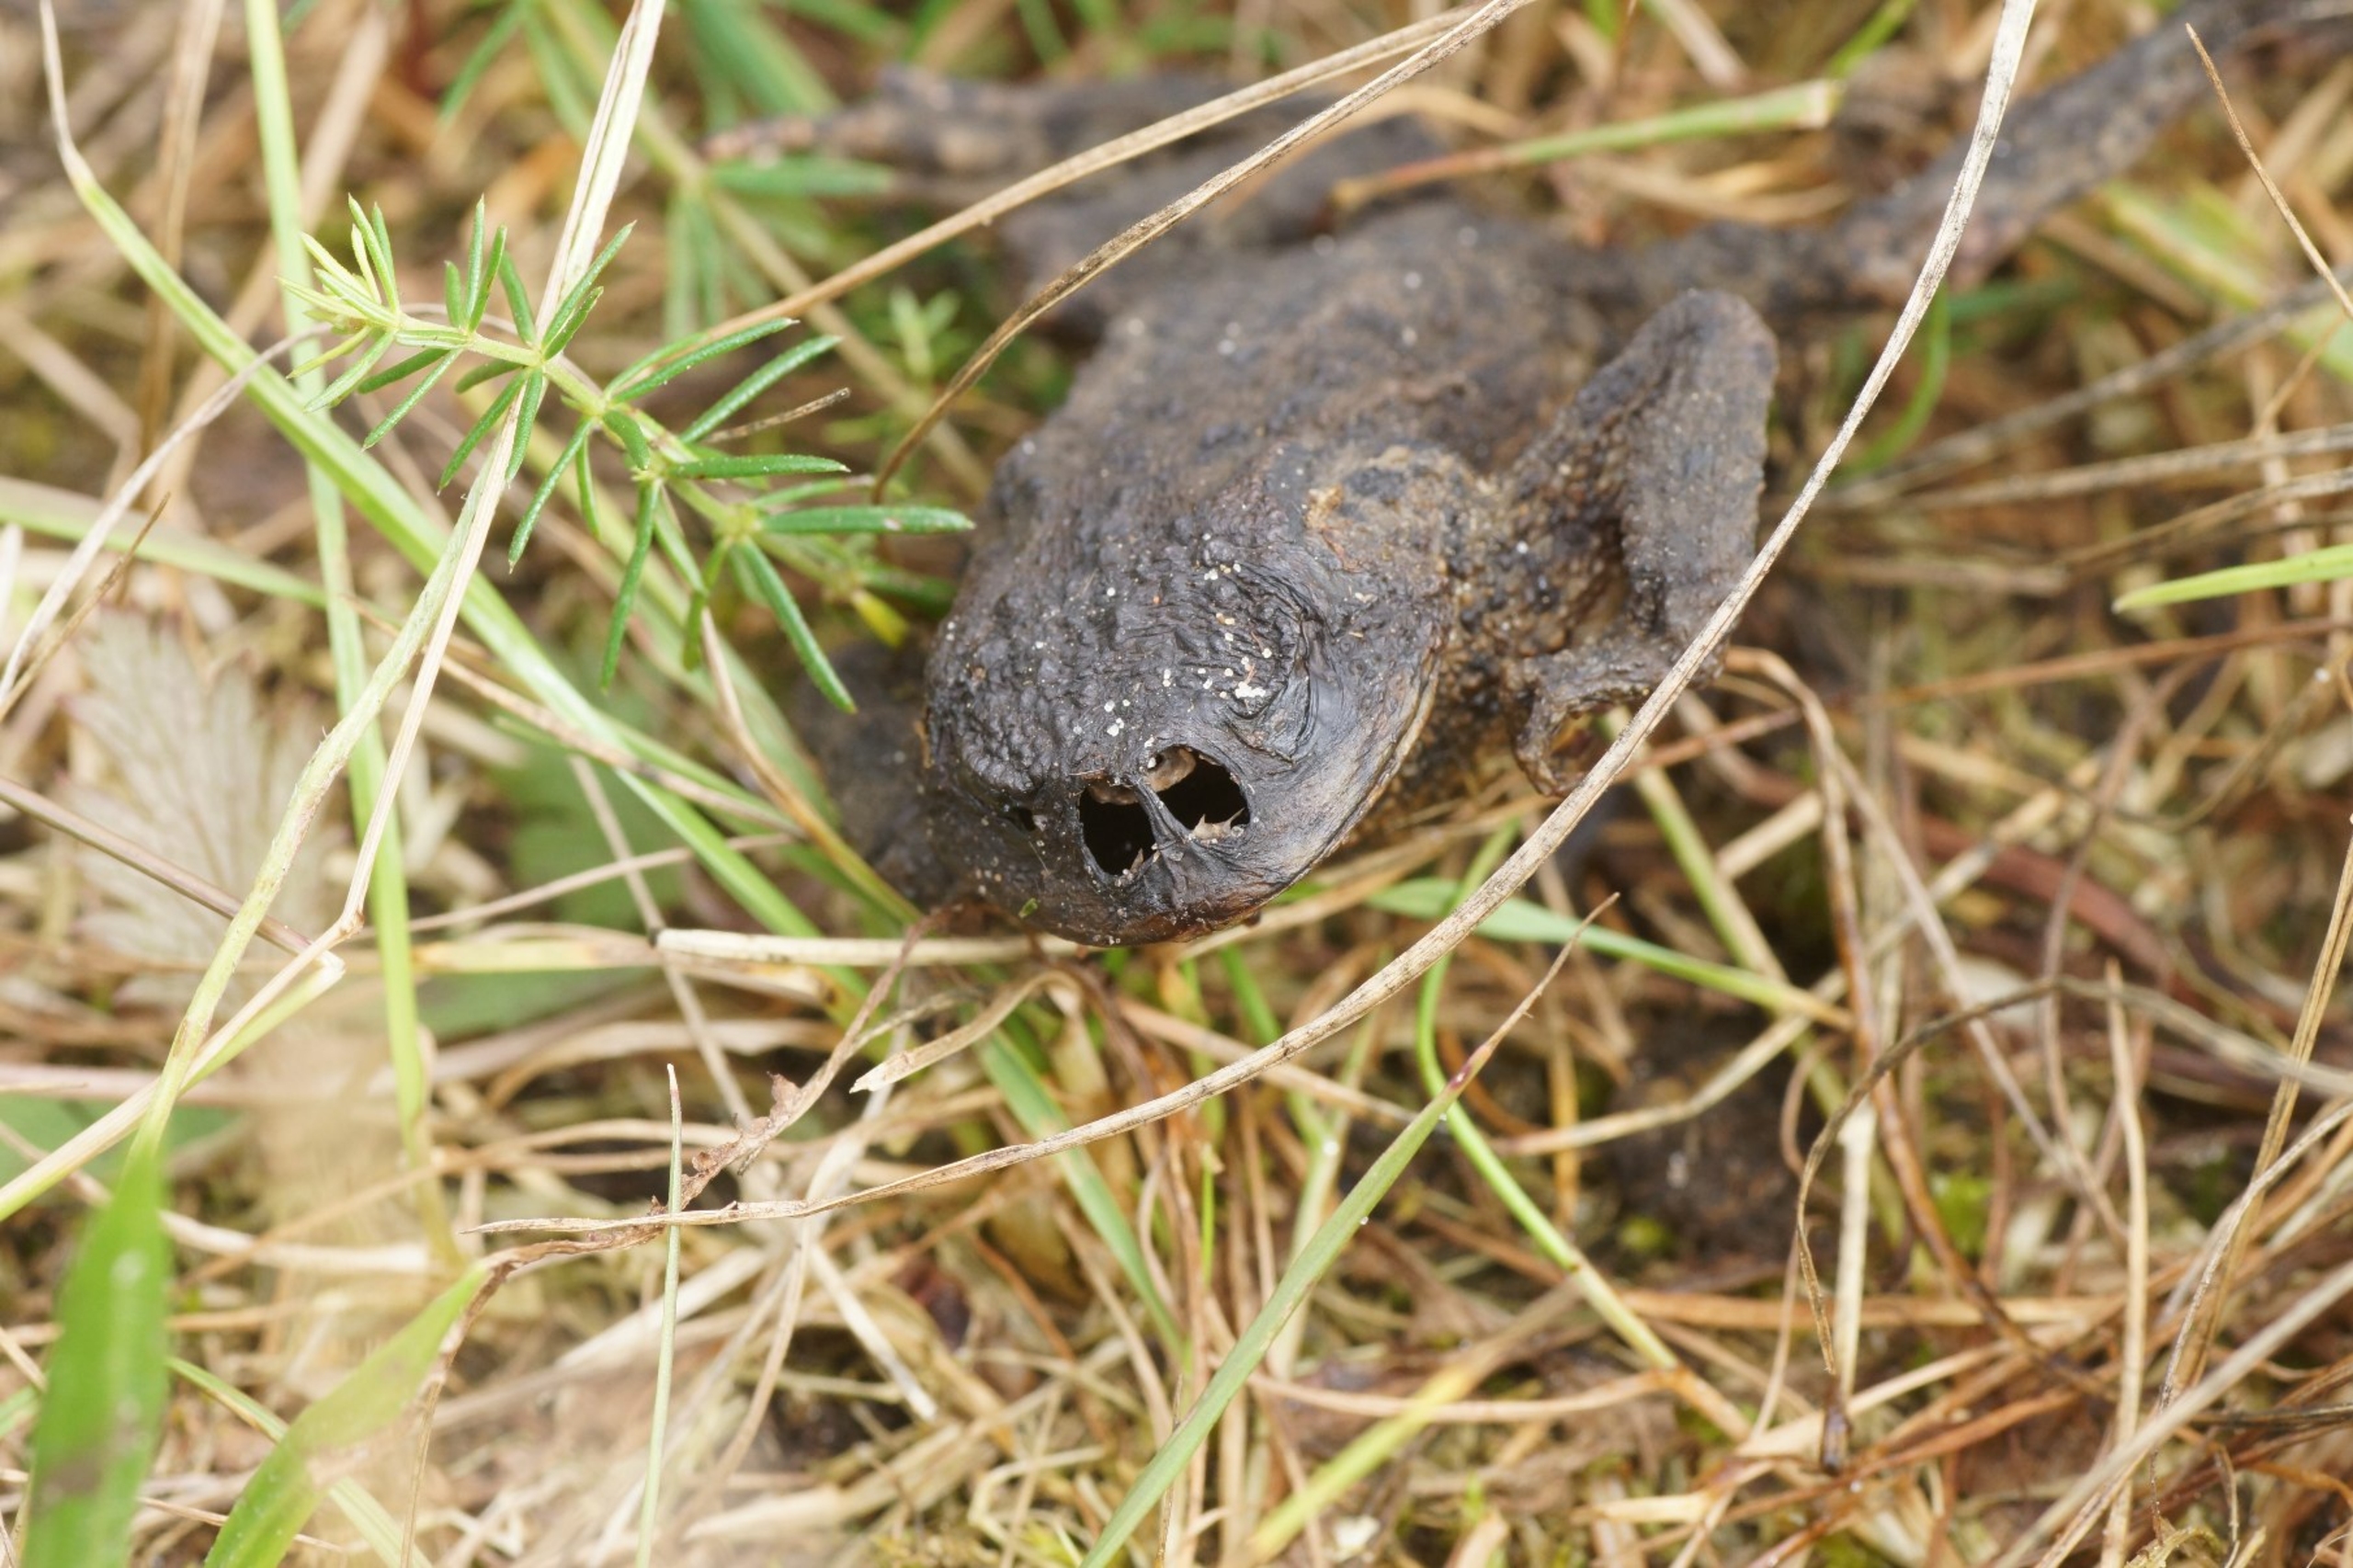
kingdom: Animalia
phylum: Arthropoda
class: Insecta
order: Diptera
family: Calliphoridae
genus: Lucilia
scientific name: Lucilia bufonivora
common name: Tudse-guldflue
